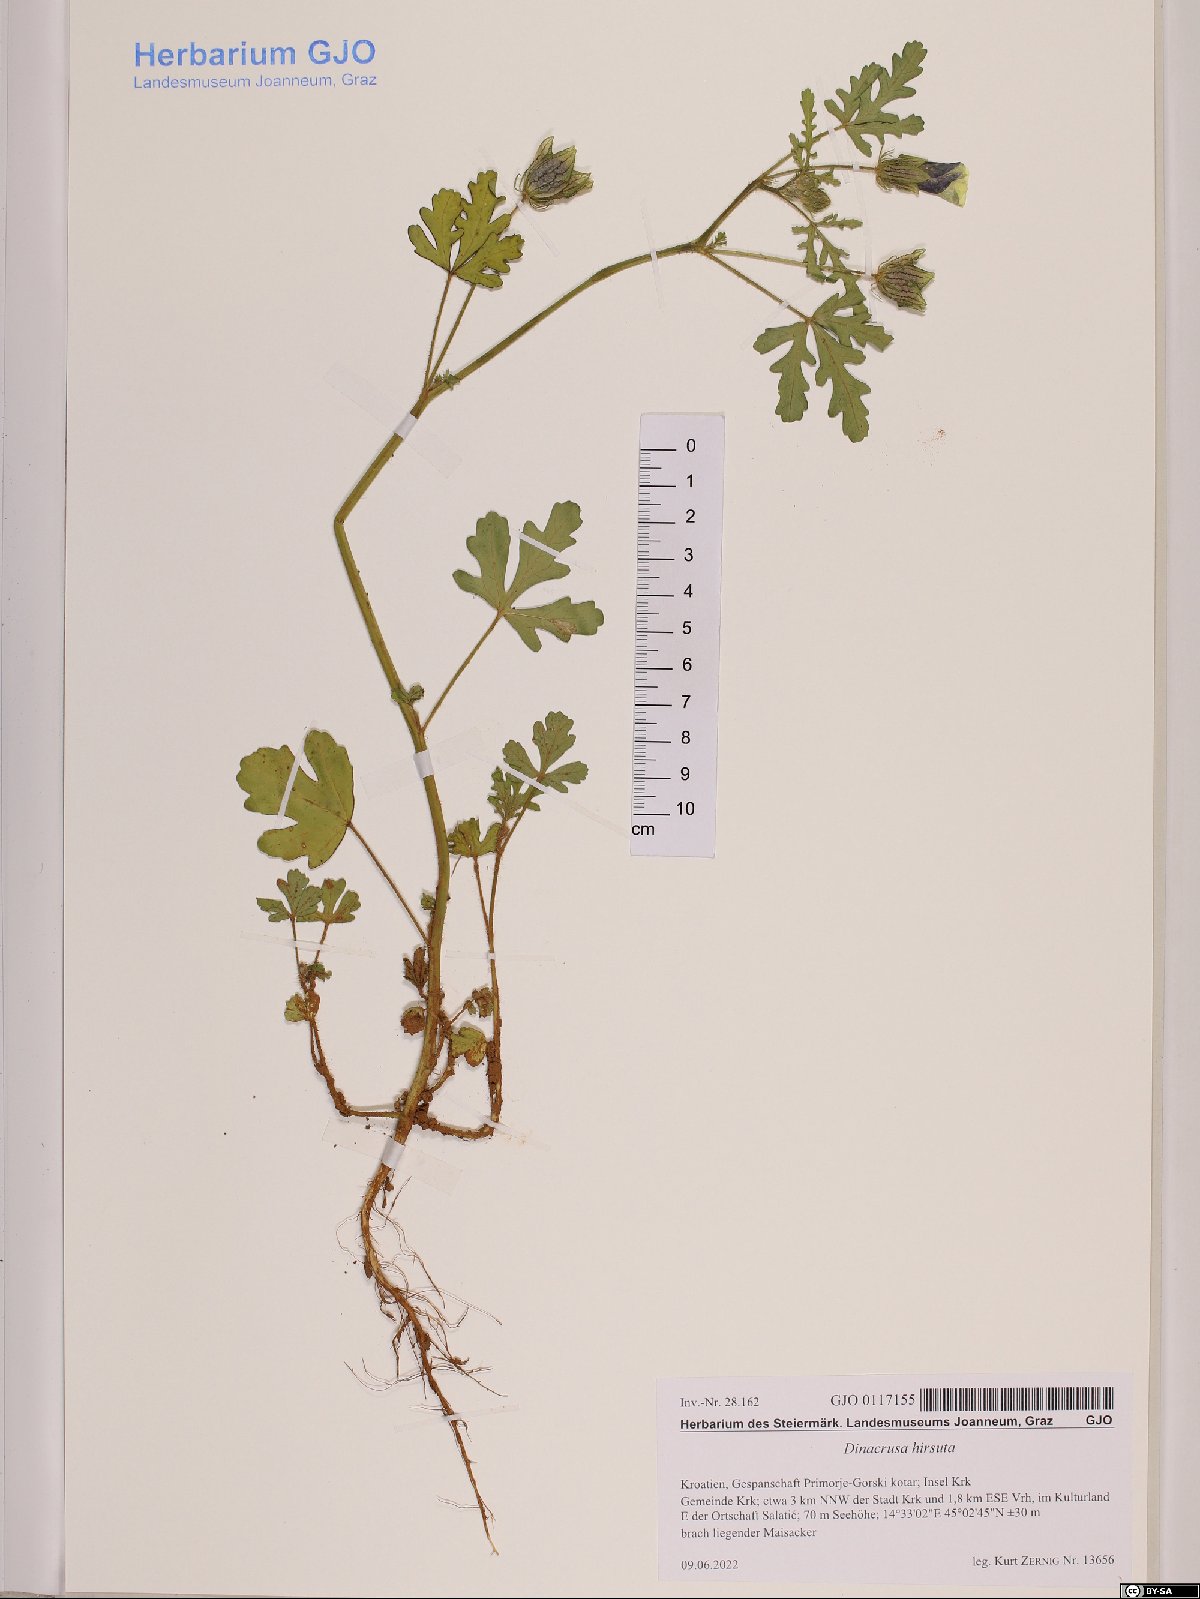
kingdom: Plantae
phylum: Tracheophyta
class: Magnoliopsida
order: Malvales
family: Malvaceae
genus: Althaea
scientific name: Althaea hirsuta
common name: Rough marsh-mallow
